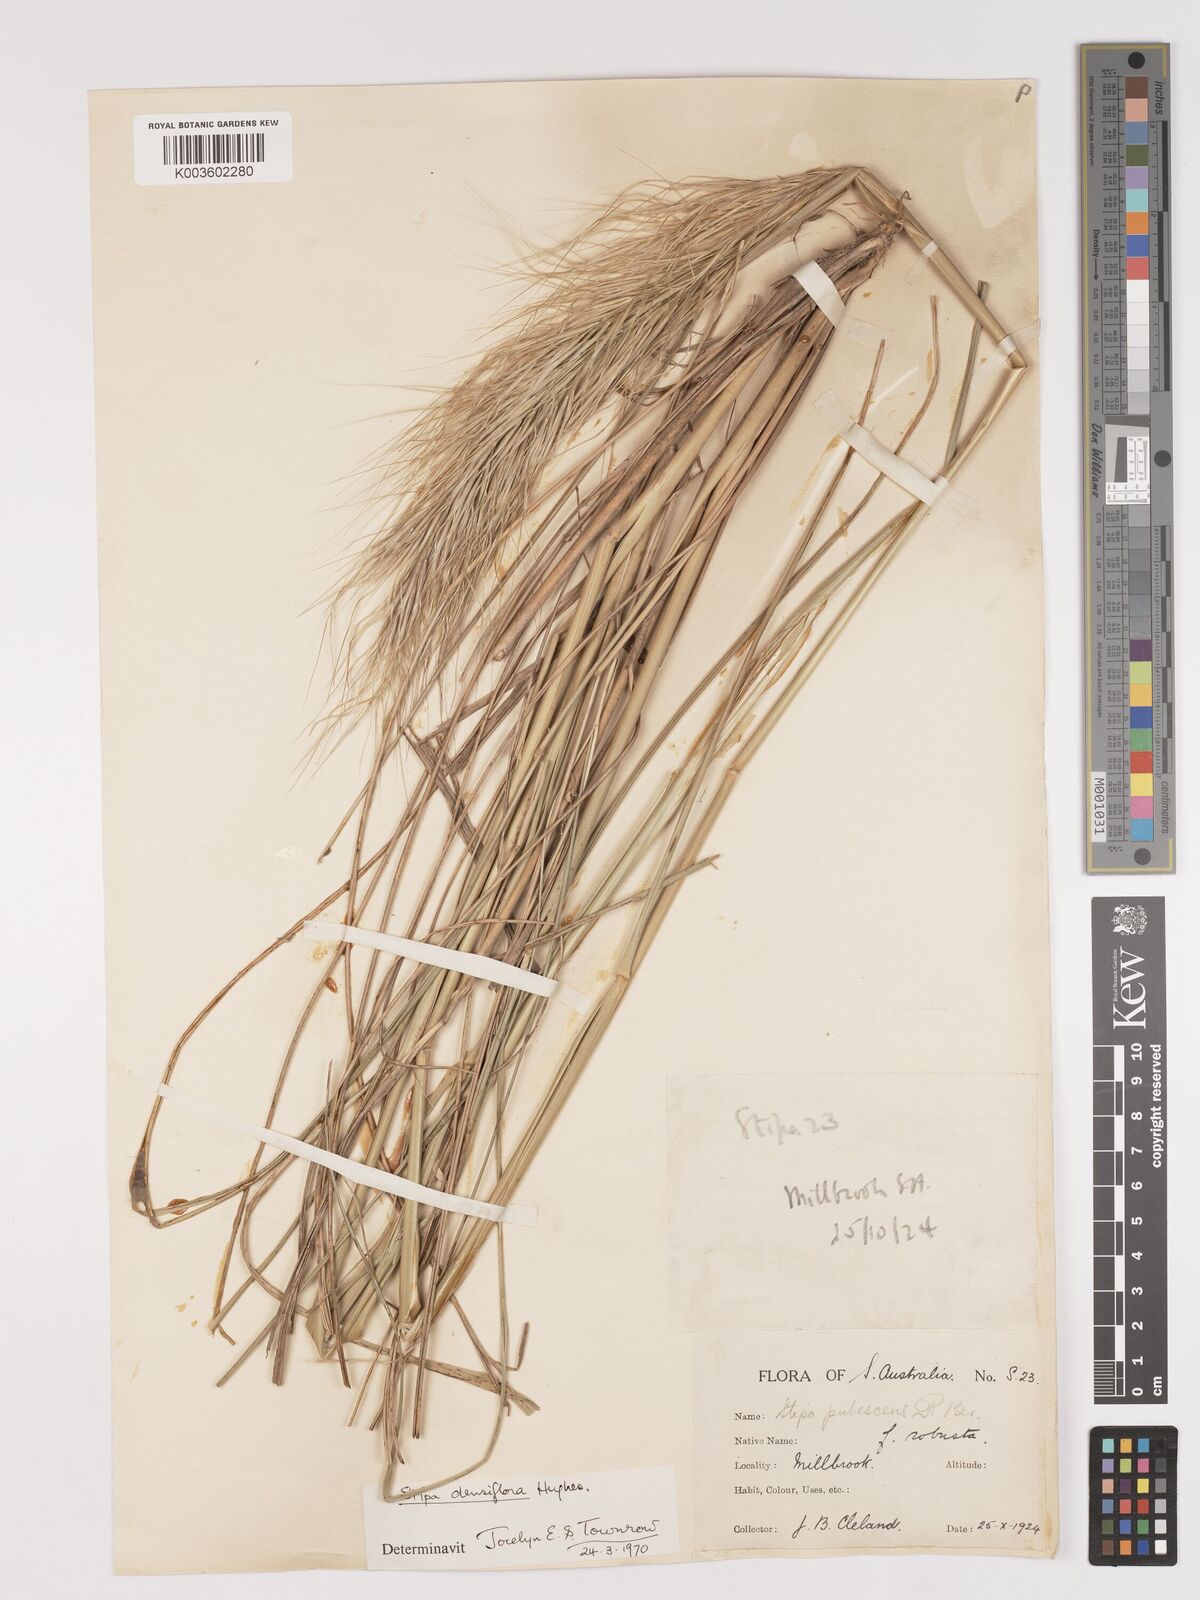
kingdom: Plantae
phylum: Tracheophyta
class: Liliopsida
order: Poales
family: Poaceae
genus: Stipa
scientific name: Stipa
